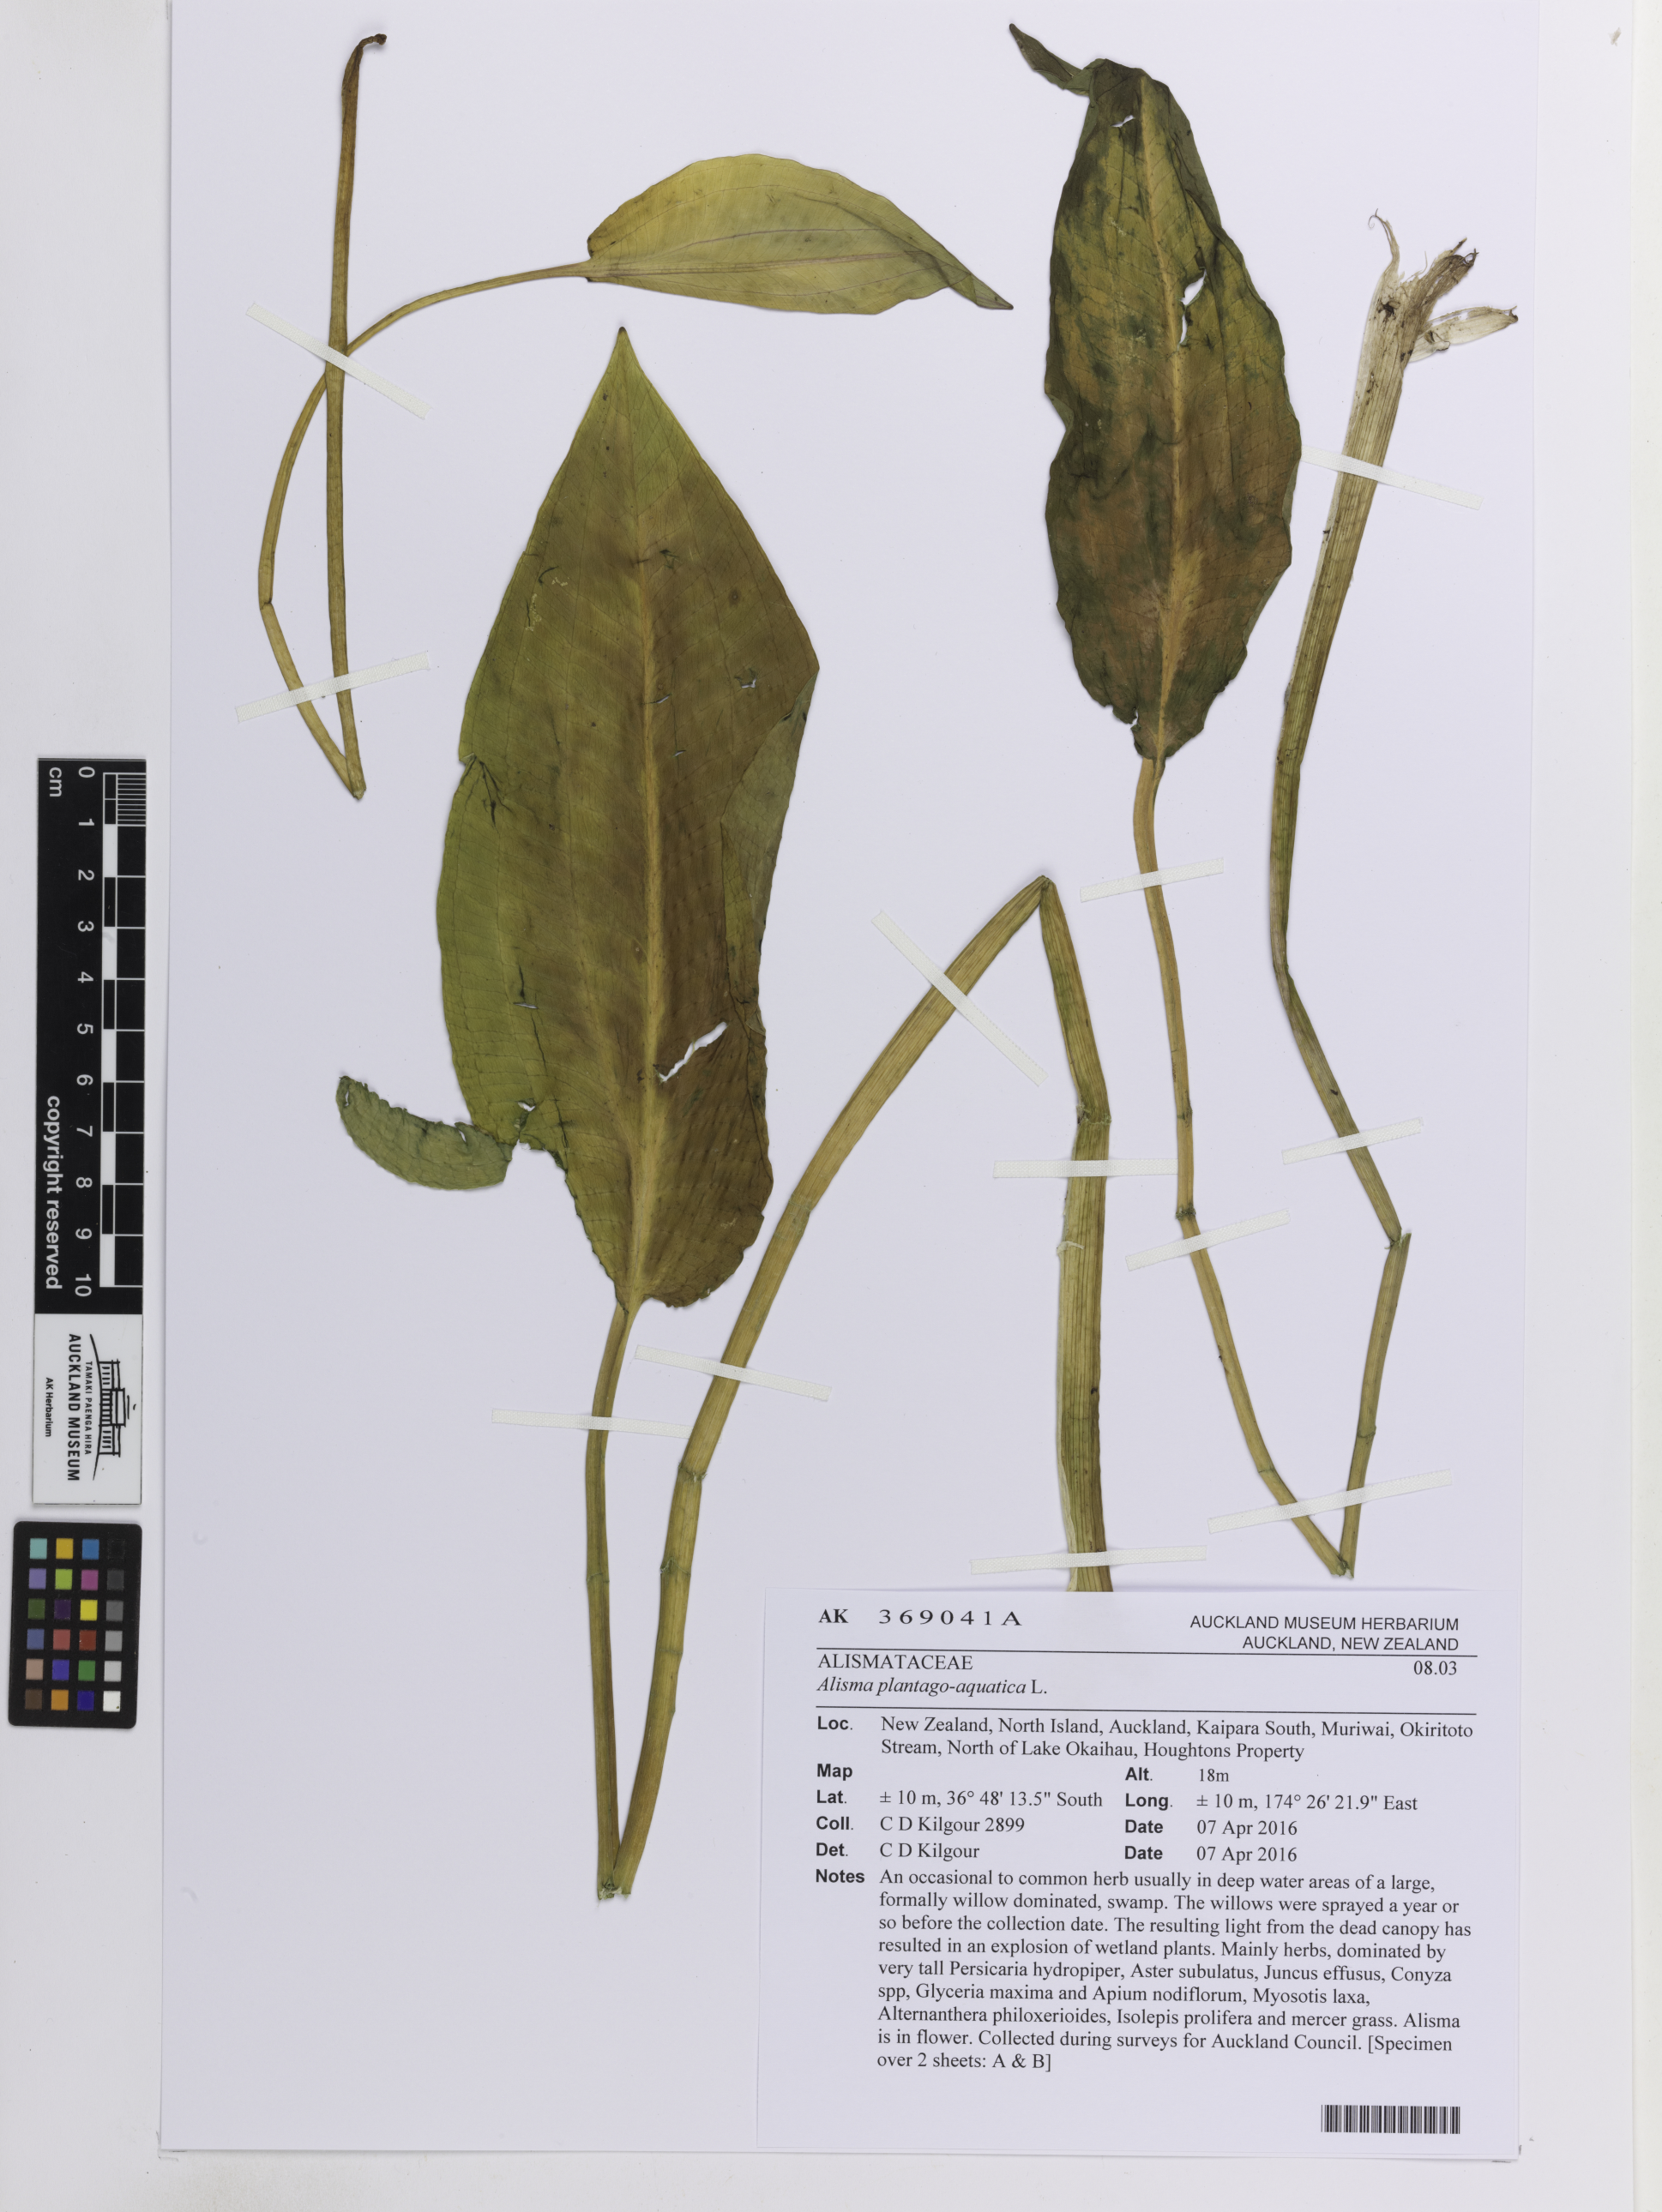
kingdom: Plantae
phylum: Tracheophyta
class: Liliopsida
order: Alismatales
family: Alismataceae
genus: Alisma
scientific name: Alisma plantago-aquatica
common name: Water-plantain
